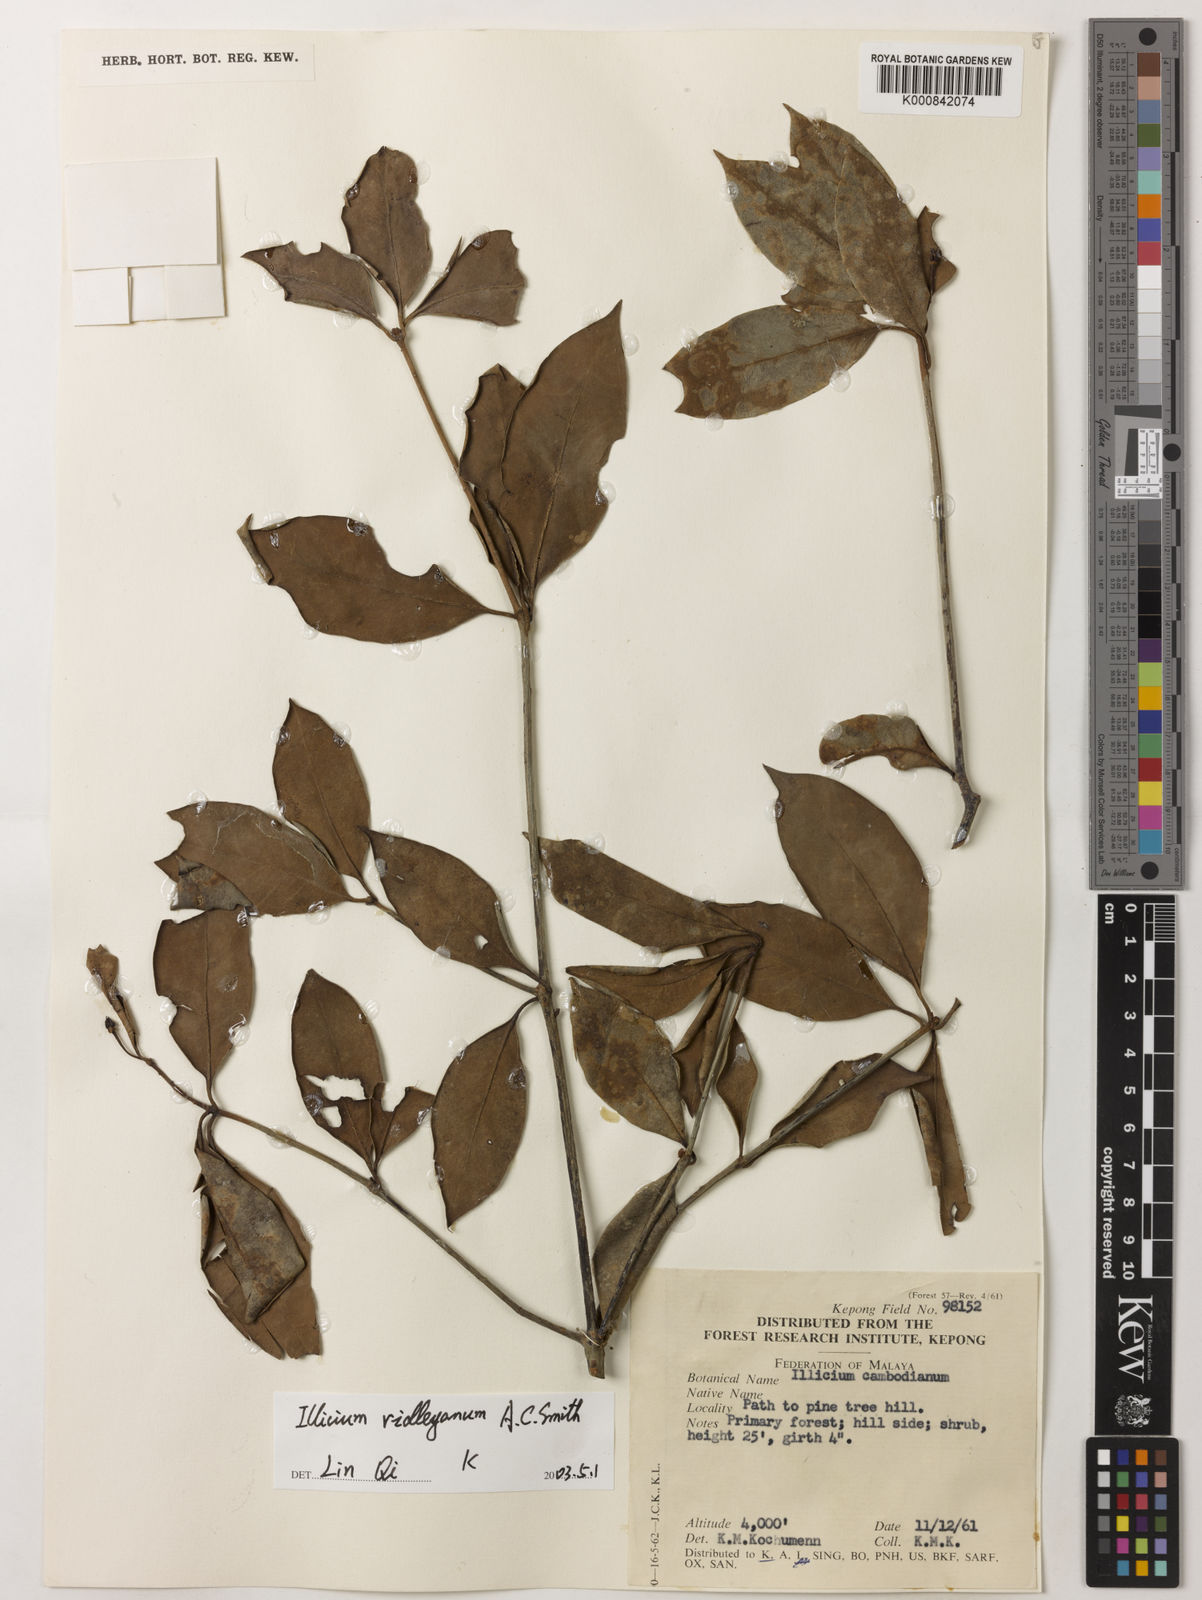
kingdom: Plantae
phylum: Tracheophyta
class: Magnoliopsida
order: Austrobaileyales
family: Schisandraceae
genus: Illicium
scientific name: Illicium ridleyanum
